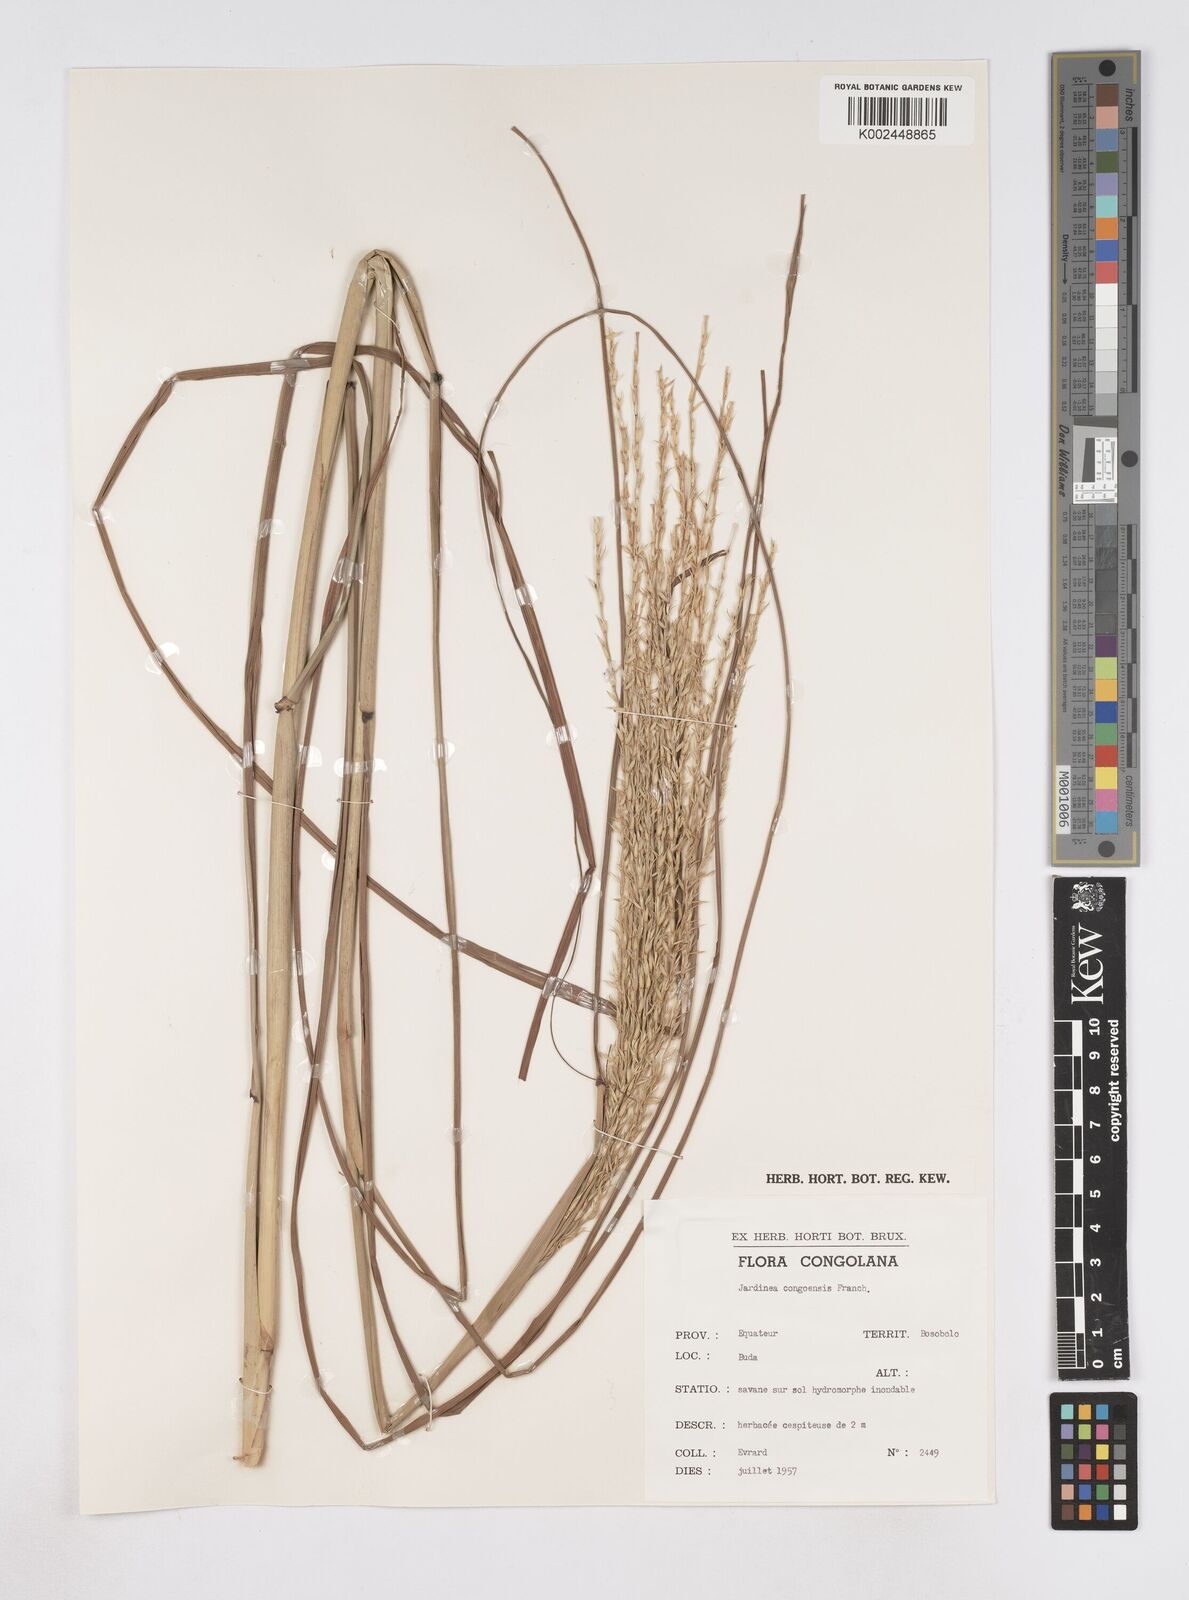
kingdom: Plantae
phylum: Tracheophyta
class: Liliopsida
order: Poales
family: Poaceae
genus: Phacelurus
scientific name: Phacelurus gabonensis
